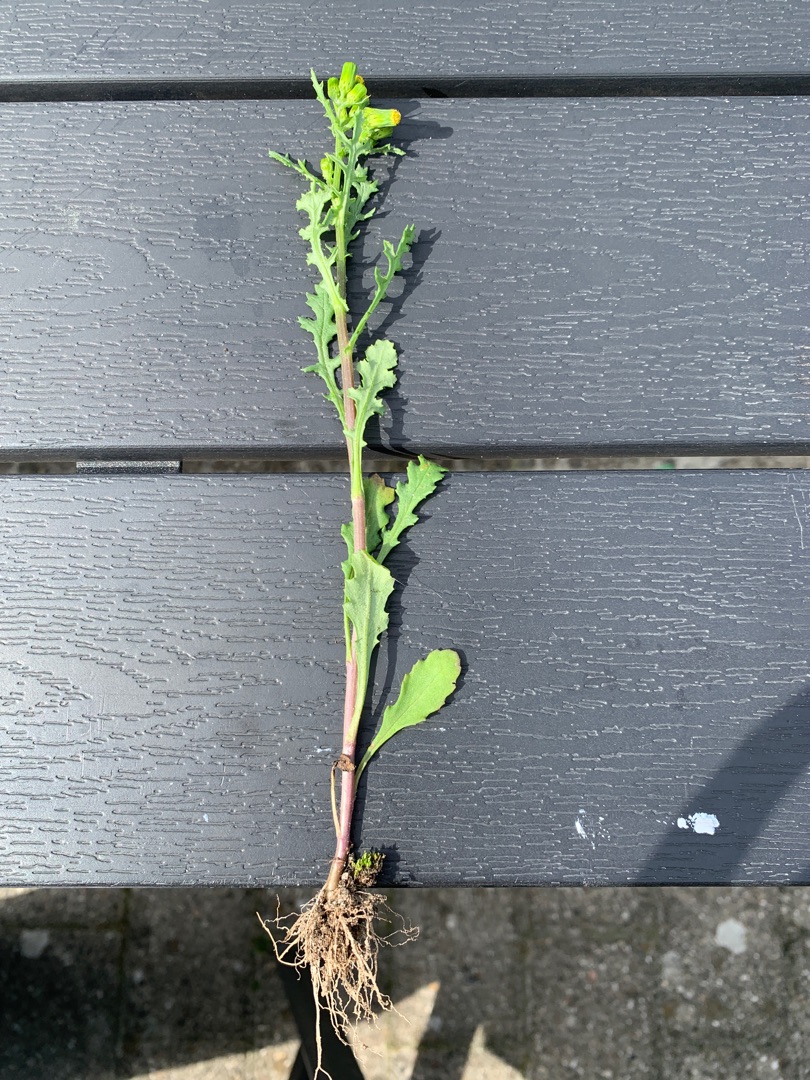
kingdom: Plantae
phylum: Tracheophyta
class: Magnoliopsida
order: Asterales
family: Asteraceae
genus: Senecio
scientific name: Senecio vulgaris
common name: Almindelig brandbæger
